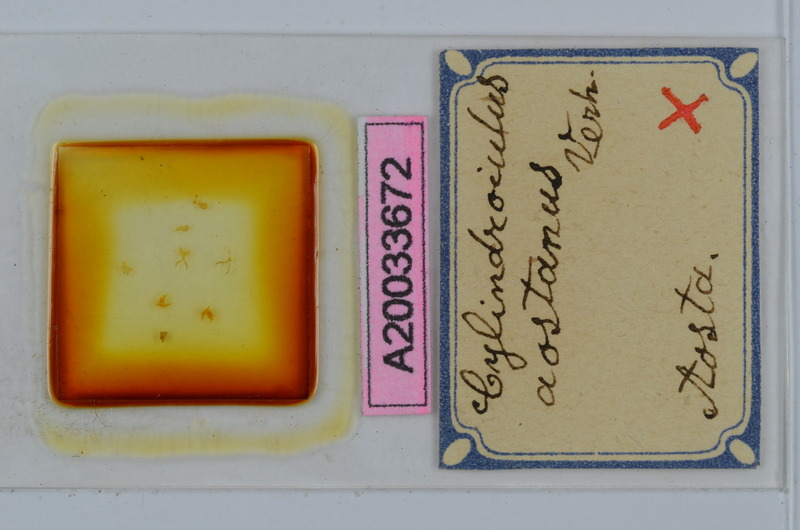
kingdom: Animalia
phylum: Arthropoda
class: Diplopoda
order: Julida
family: Julidae
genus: Cylindroiulus
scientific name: Cylindroiulus aostanus
